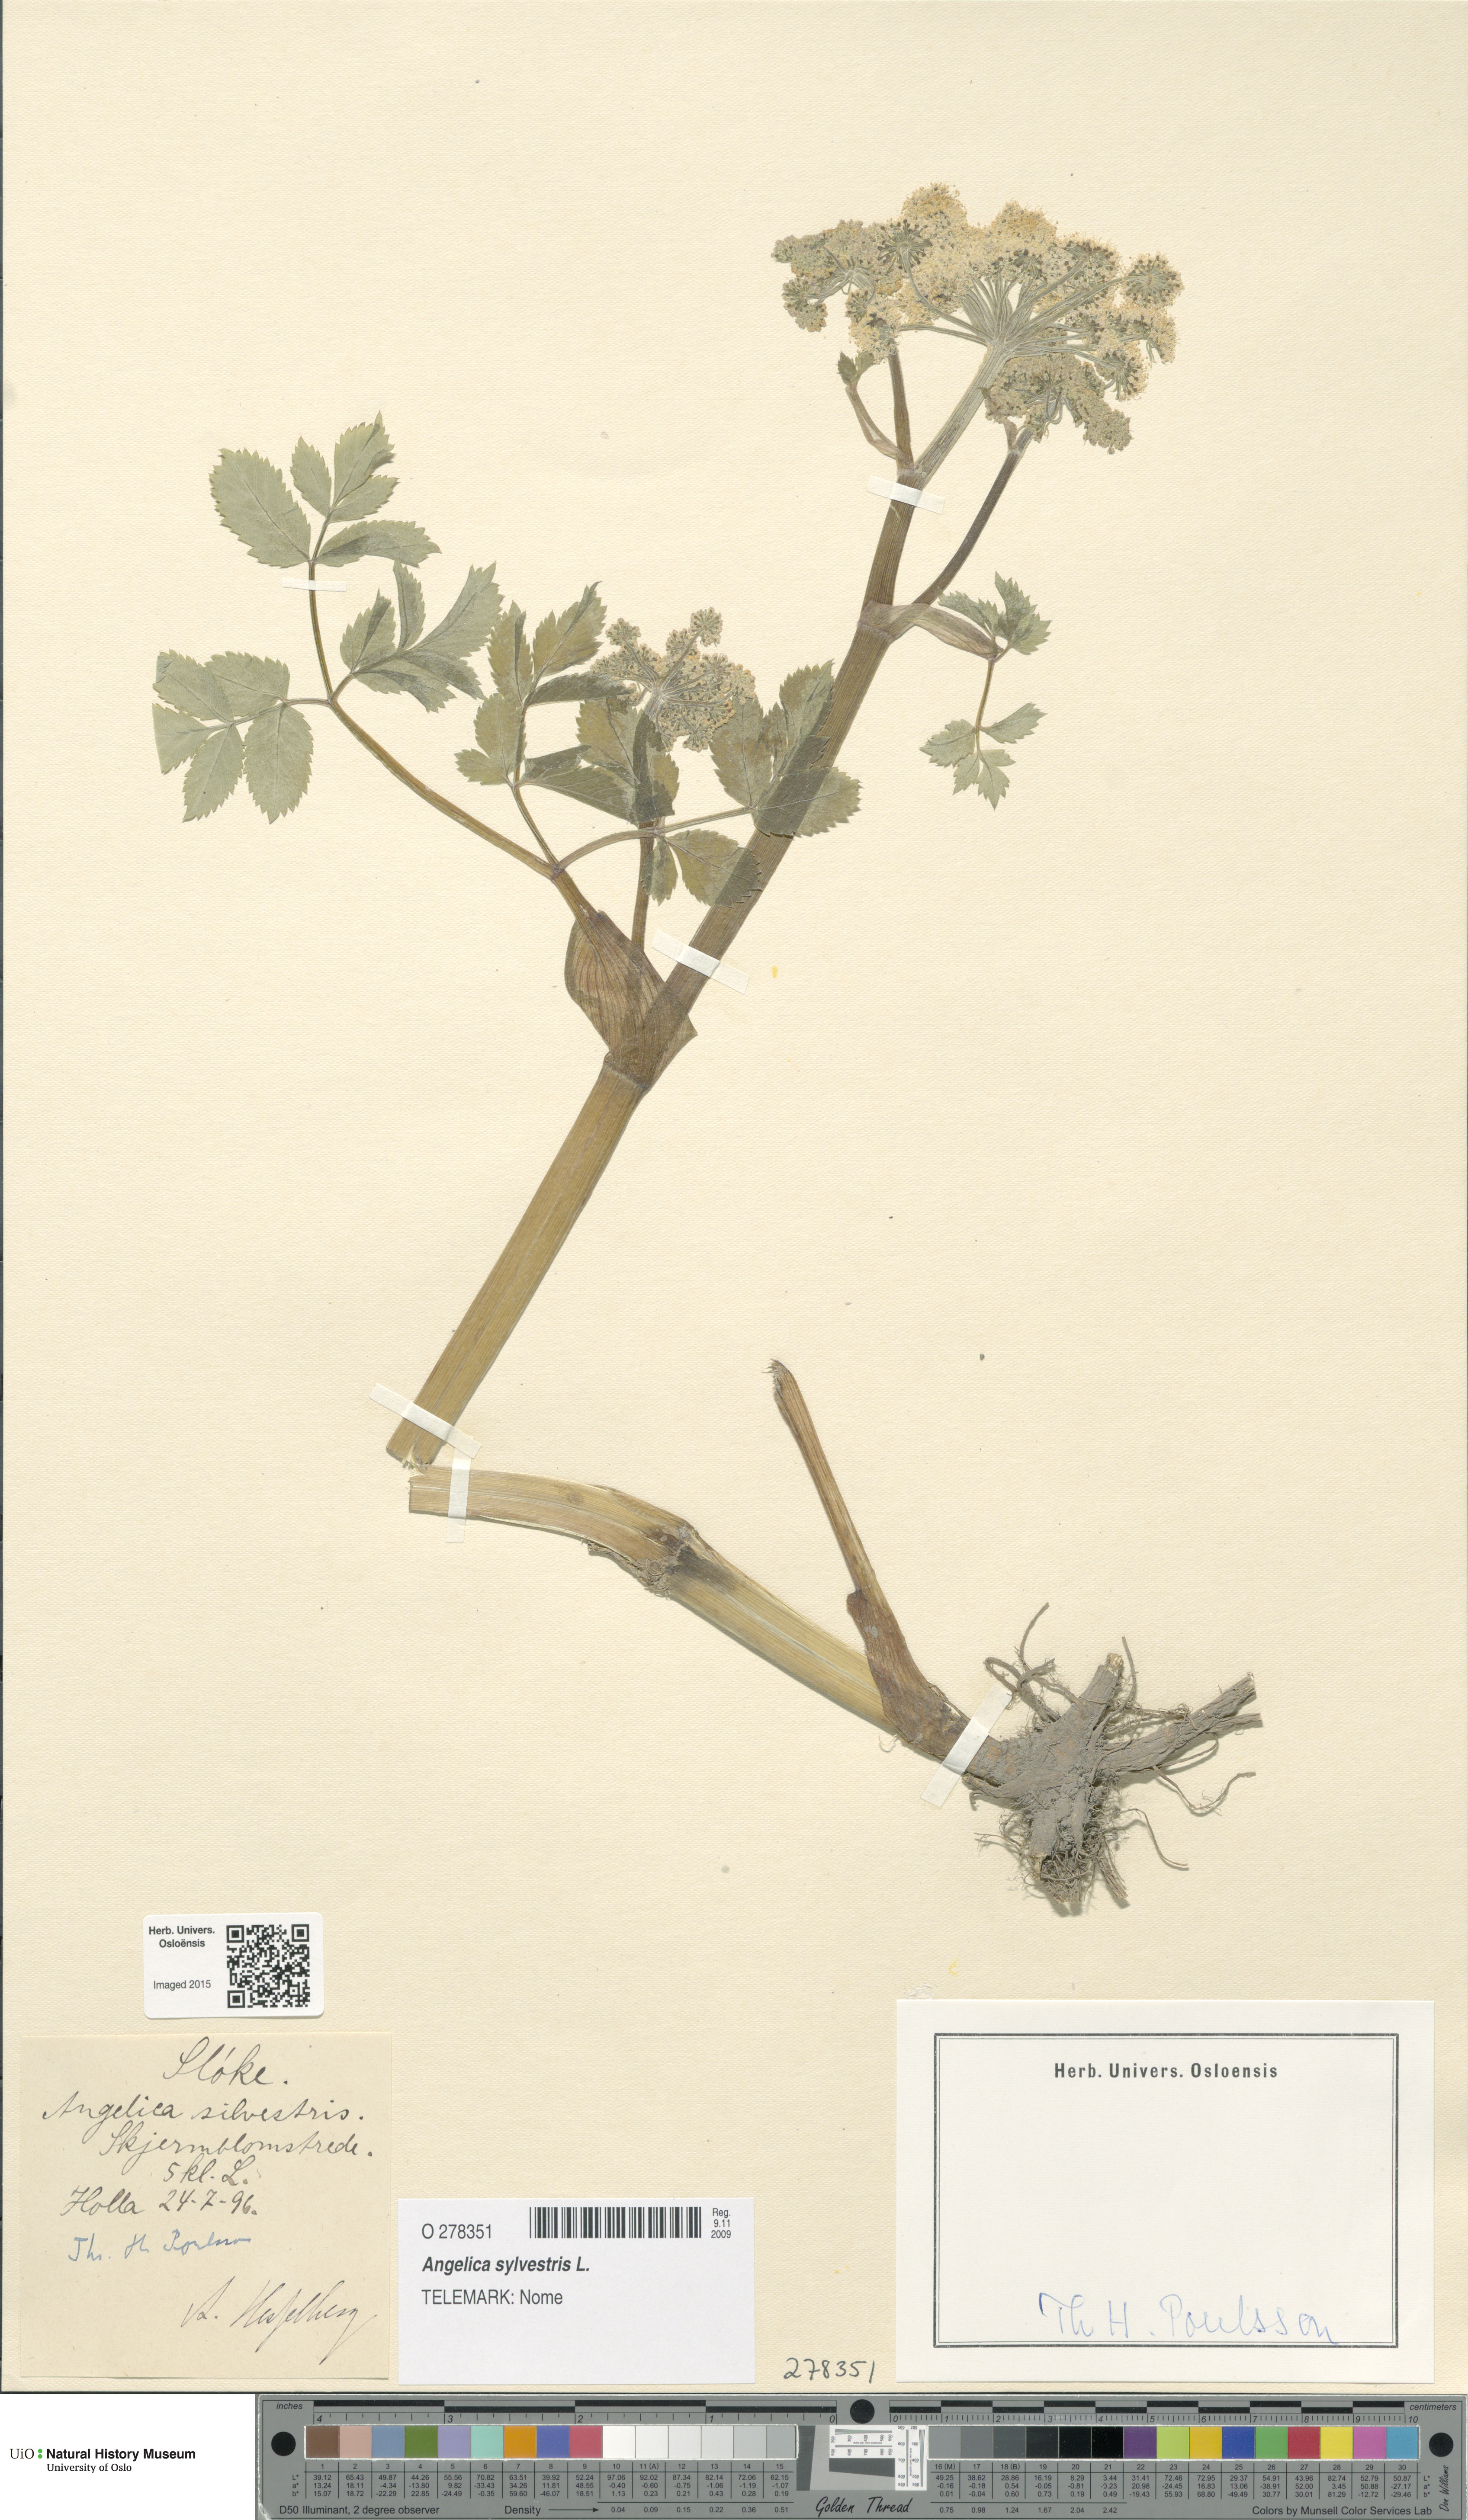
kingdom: Plantae
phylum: Tracheophyta
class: Magnoliopsida
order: Apiales
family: Apiaceae
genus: Angelica
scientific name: Angelica sylvestris
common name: Wild angelica
